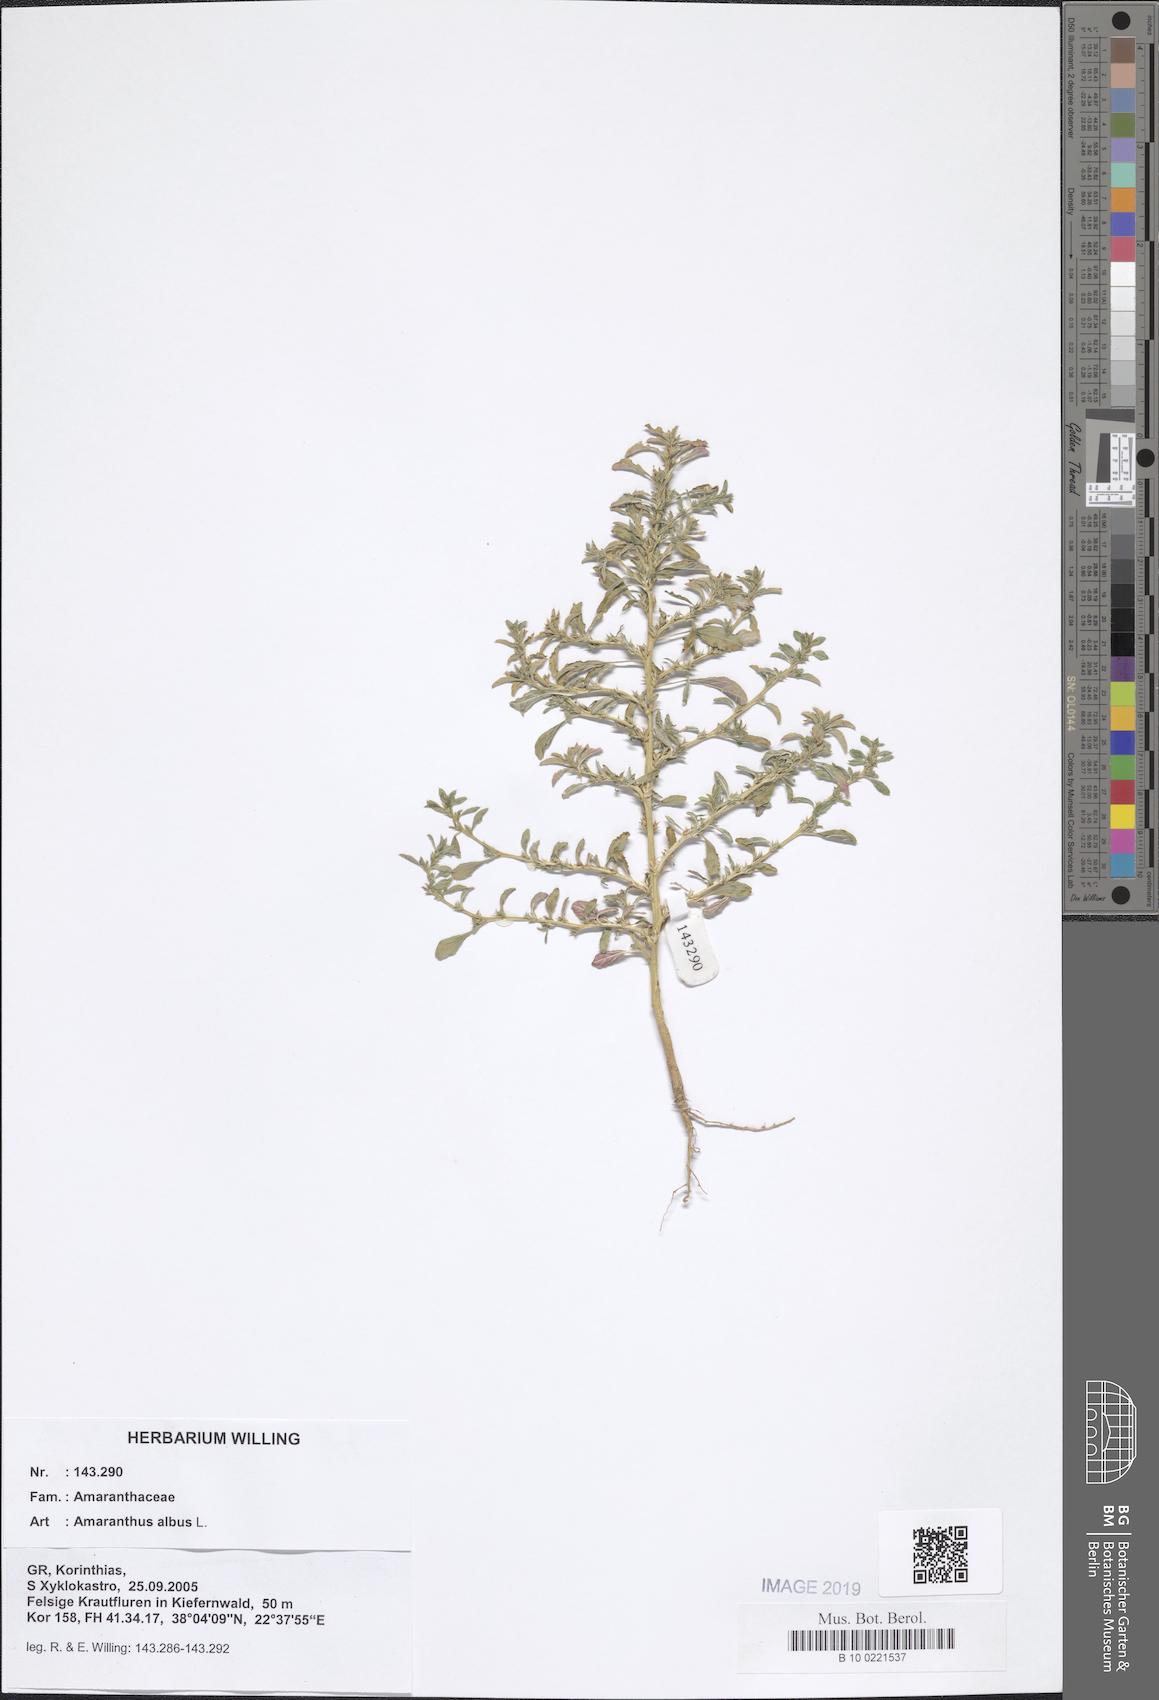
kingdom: Plantae
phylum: Tracheophyta
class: Magnoliopsida
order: Caryophyllales
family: Amaranthaceae
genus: Amaranthus
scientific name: Amaranthus albus
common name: White pigweed
